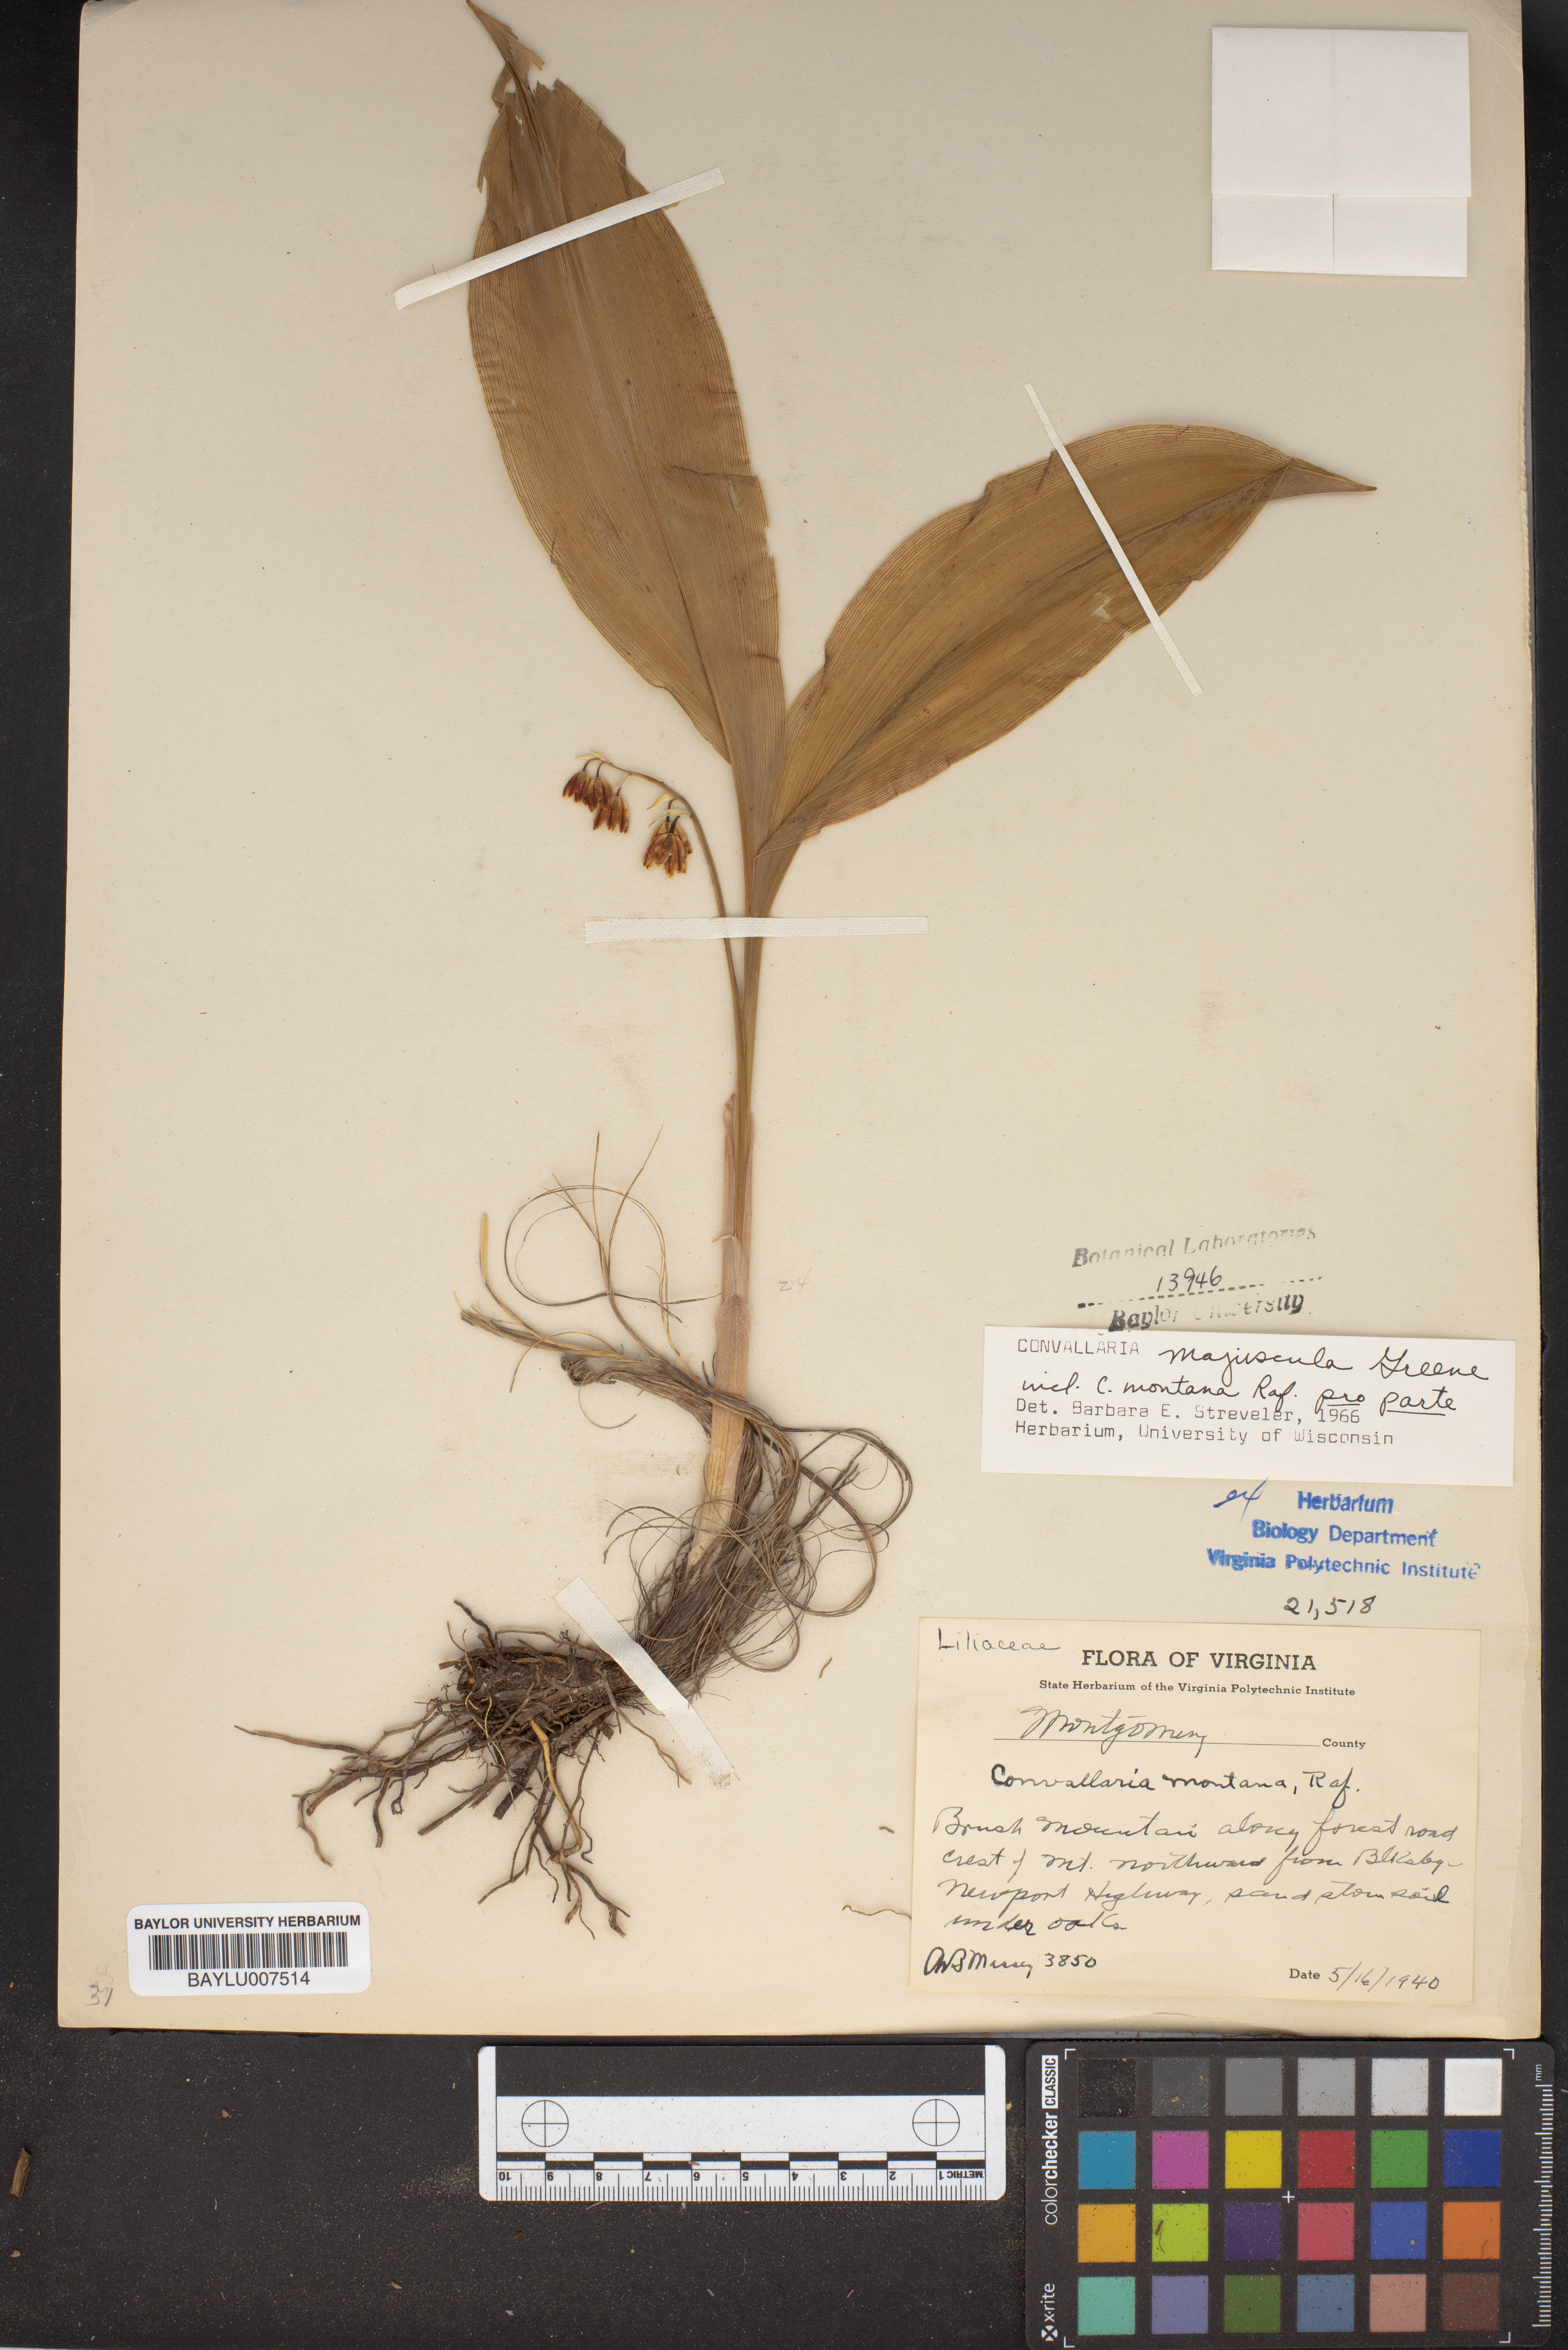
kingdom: Plantae
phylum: Tracheophyta
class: Liliopsida
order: Asparagales
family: Asparagaceae
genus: Convallaria
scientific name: Convallaria pseudomajalis
